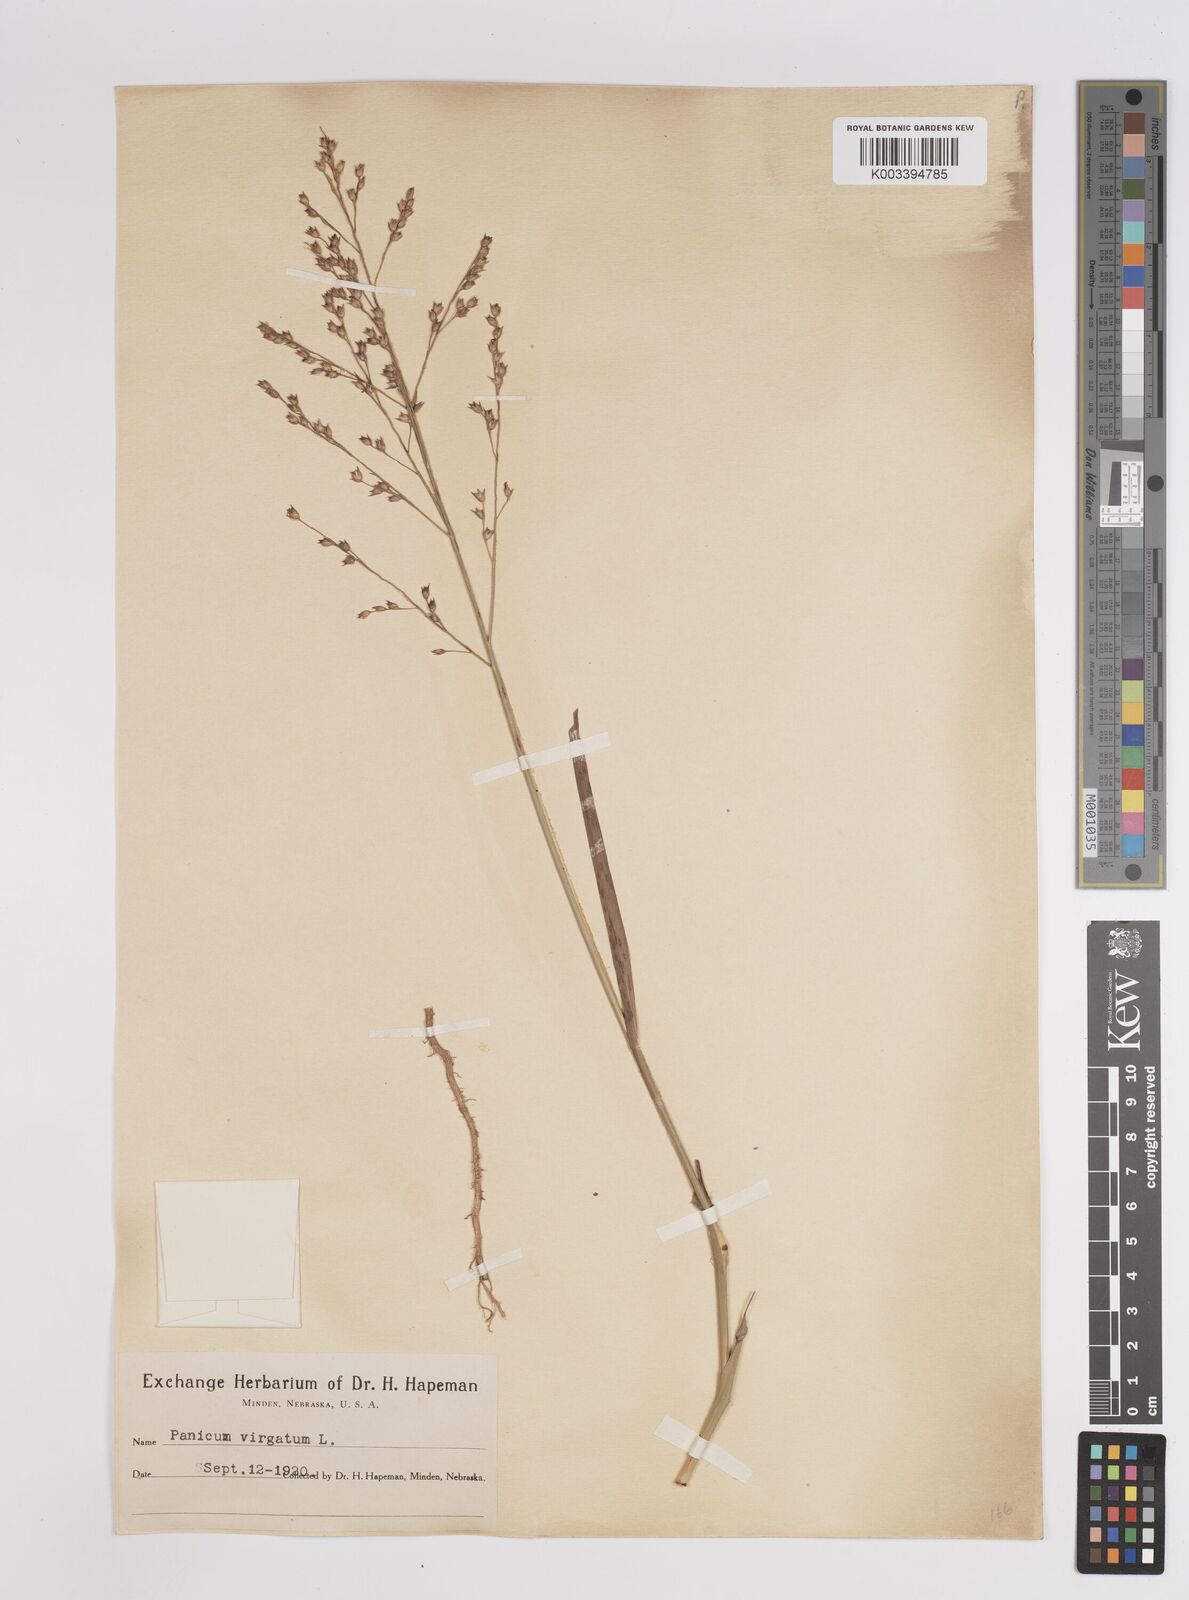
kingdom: Plantae
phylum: Tracheophyta
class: Liliopsida
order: Poales
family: Poaceae
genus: Panicum
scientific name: Panicum virgatum
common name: Switchgrass
